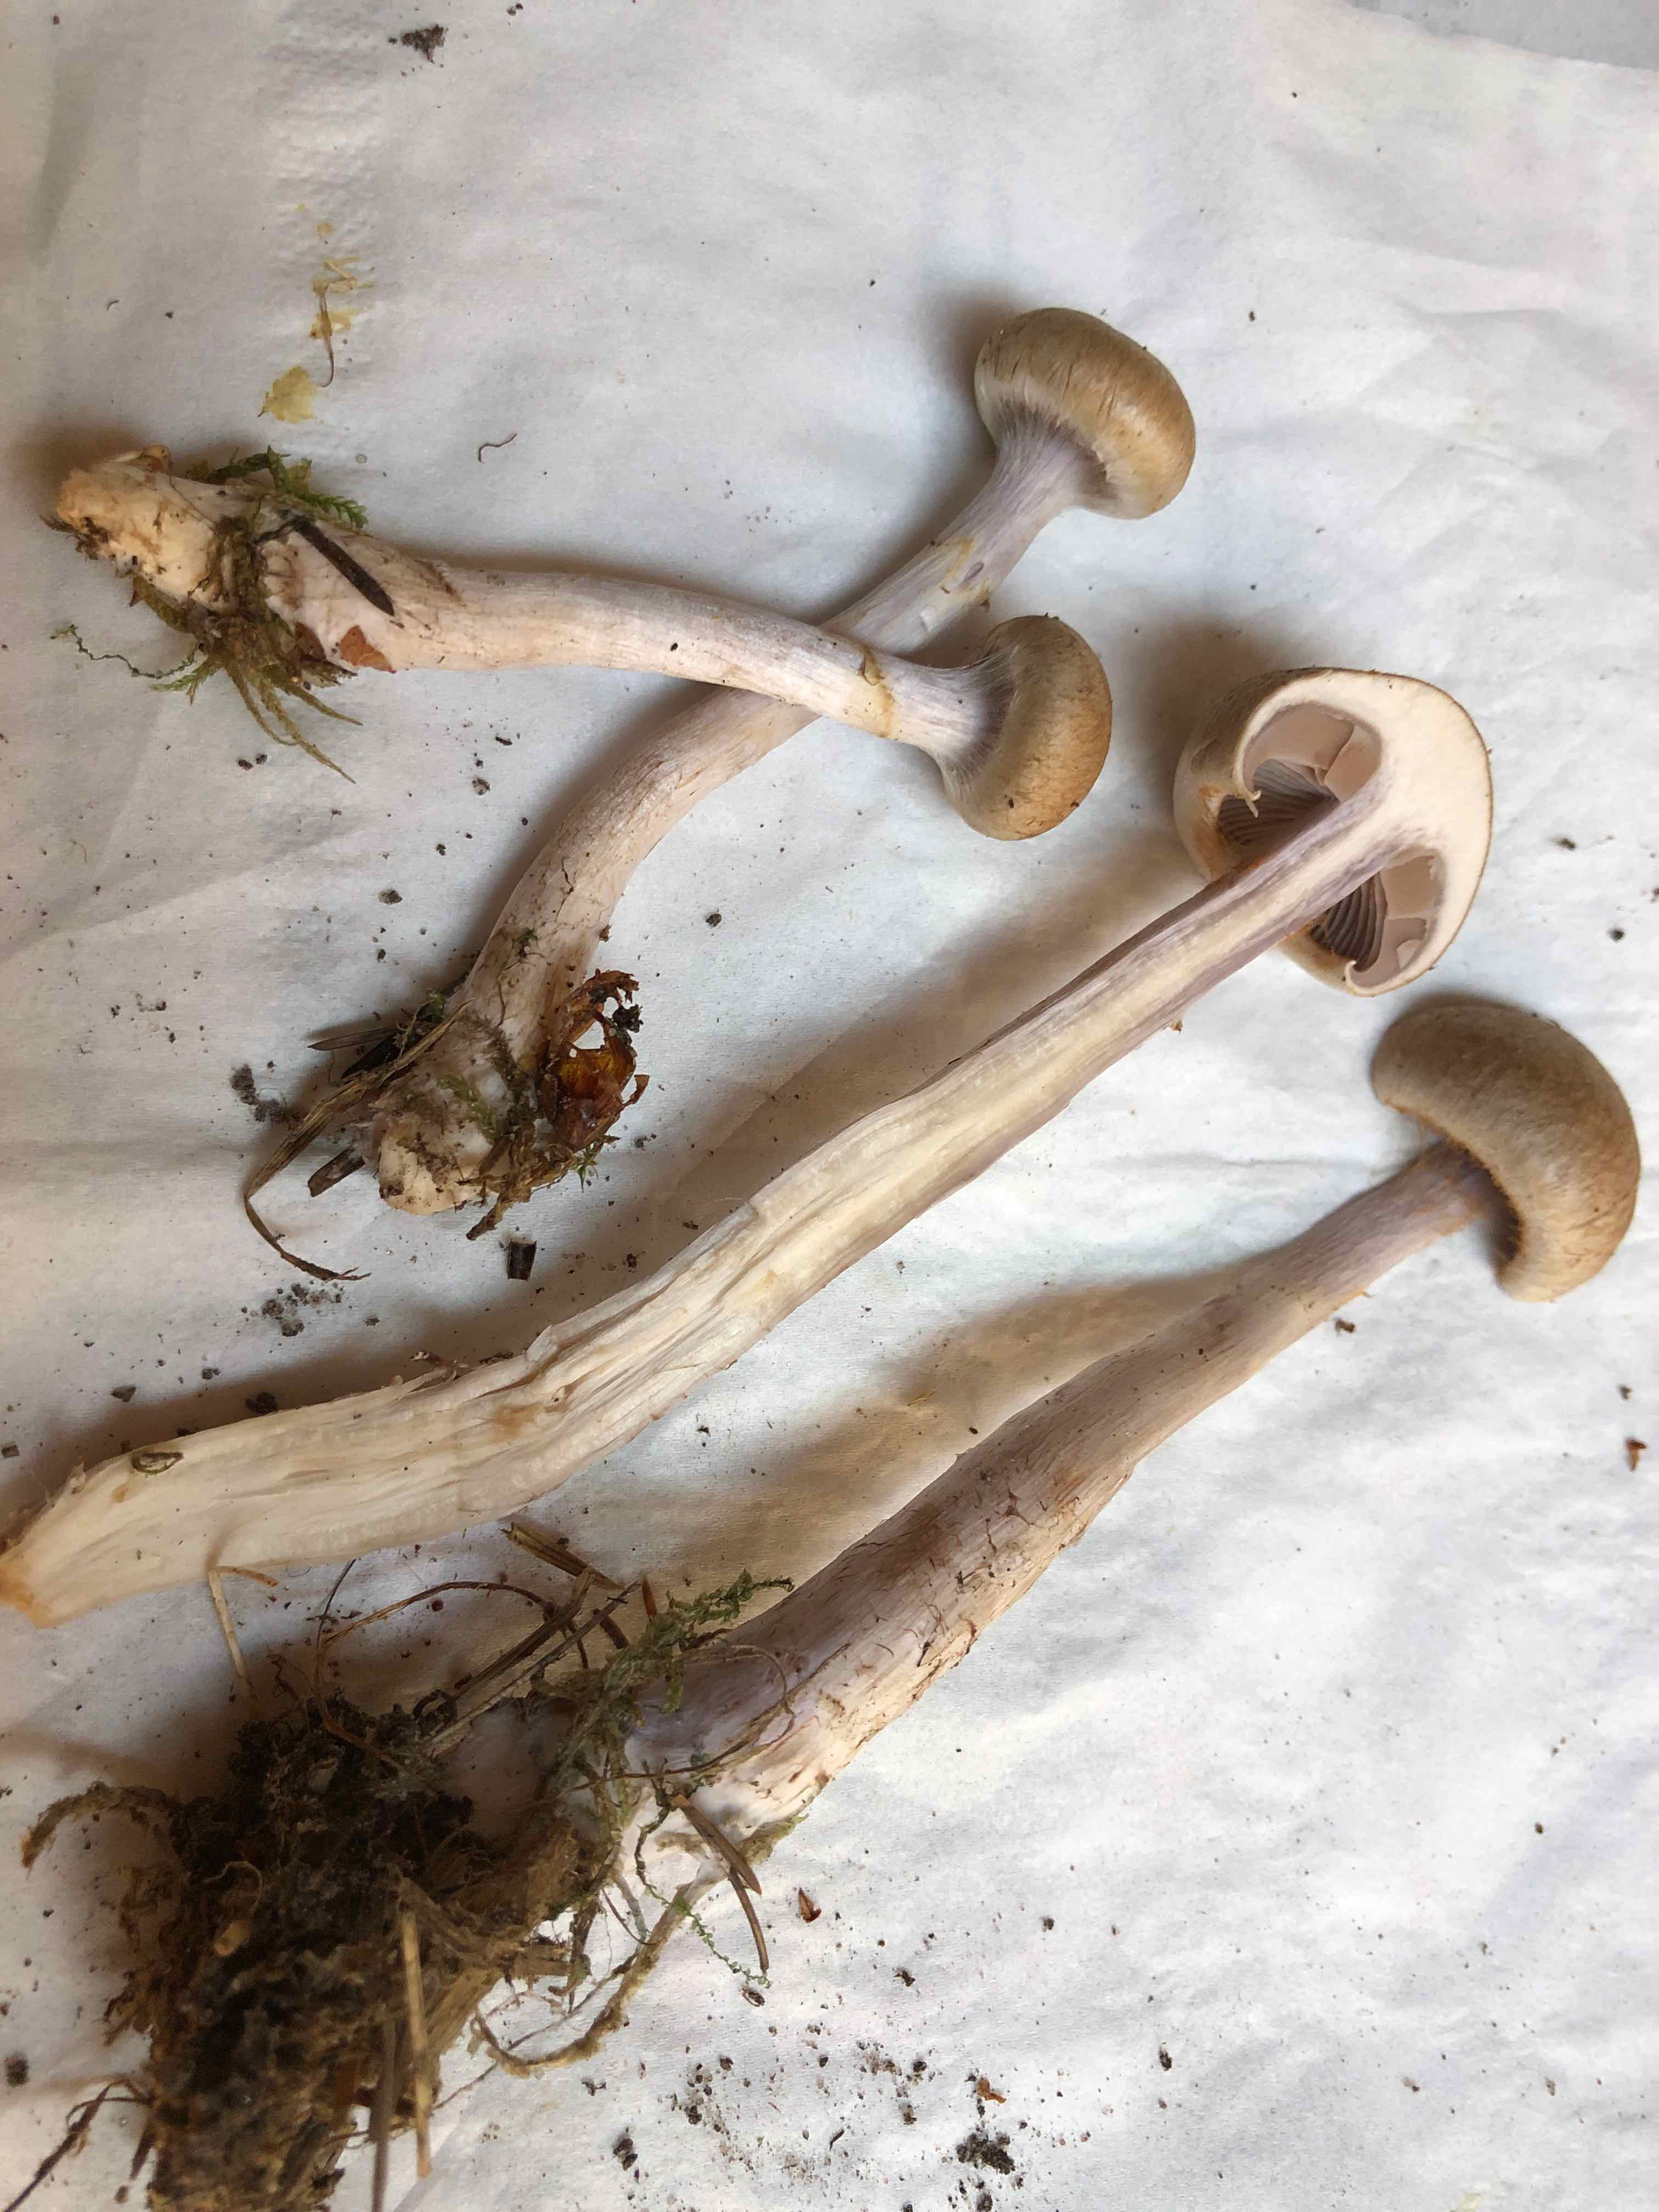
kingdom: Fungi
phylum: Basidiomycota
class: Agaricomycetes
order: Agaricales
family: Cortinariaceae
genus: Cortinarius
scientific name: Cortinarius
